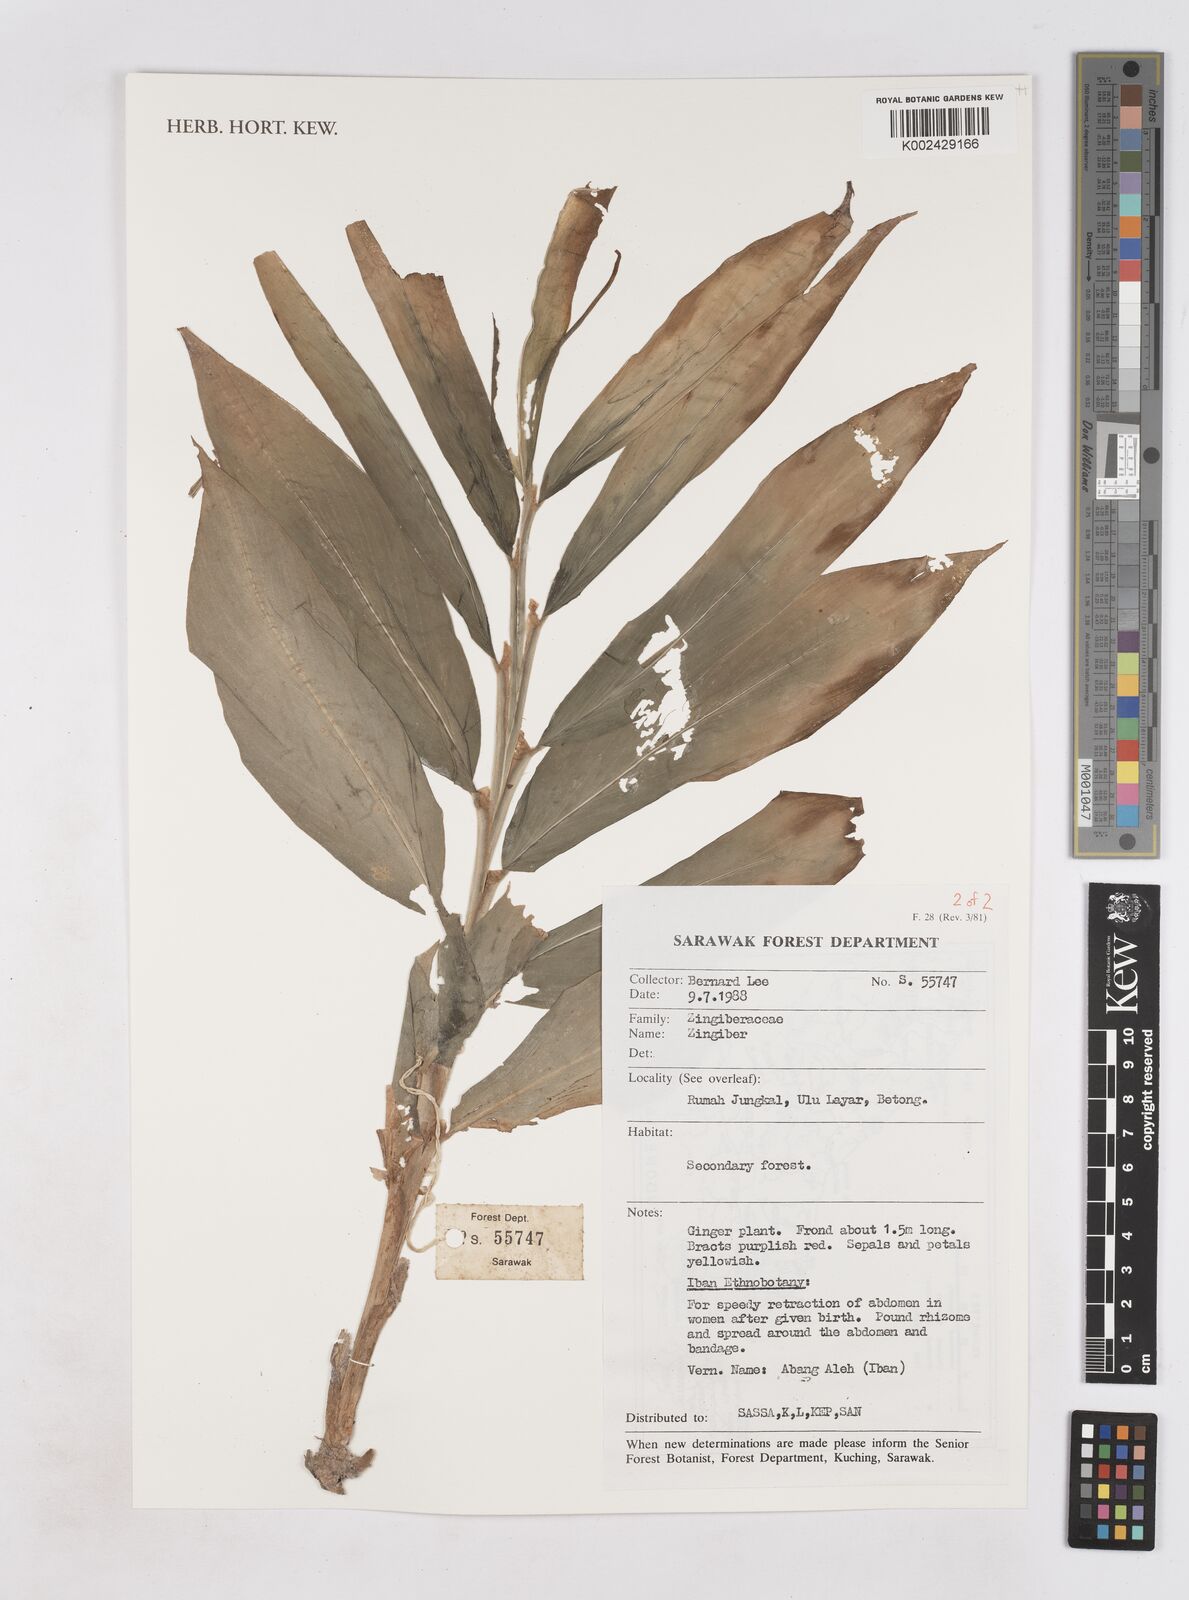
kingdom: Plantae
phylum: Tracheophyta
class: Liliopsida
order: Zingiberales
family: Zingiberaceae
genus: Zingiber
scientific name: Zingiber
